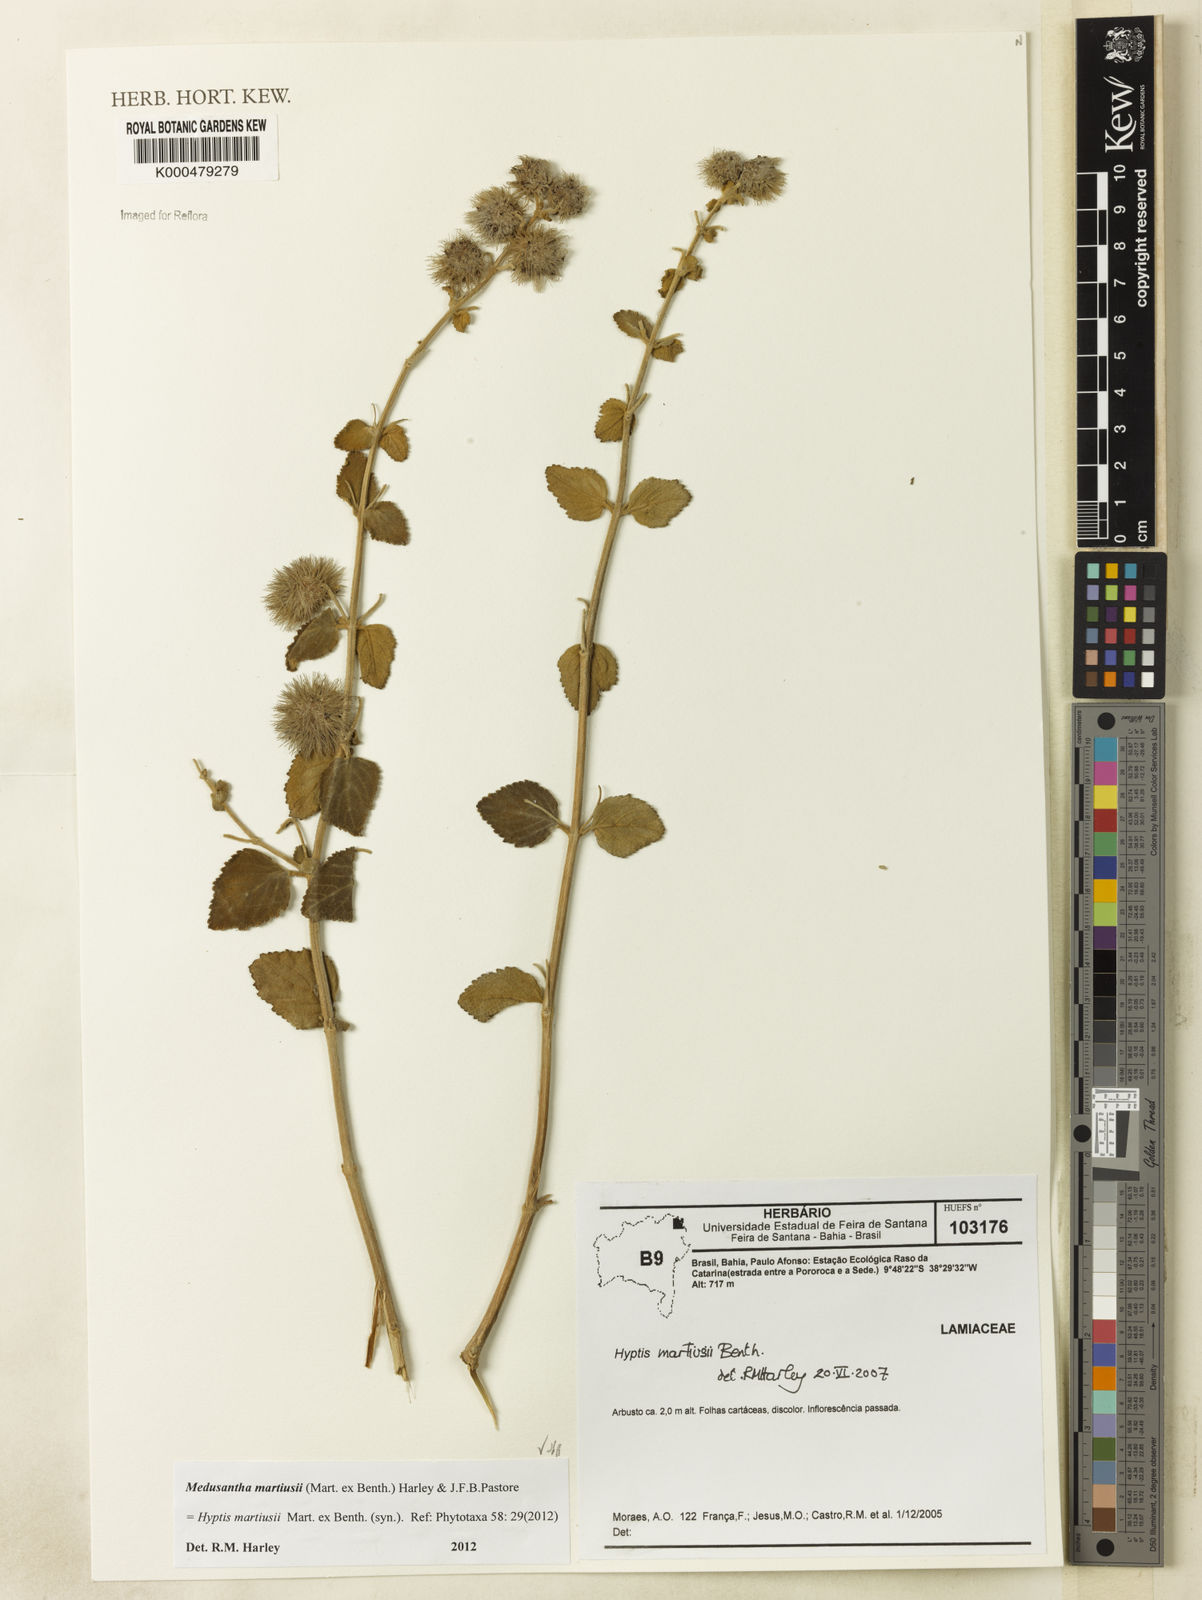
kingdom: Plantae
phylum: Tracheophyta
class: Magnoliopsida
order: Lamiales
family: Lamiaceae
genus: Medusantha
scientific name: Medusantha martiusii
